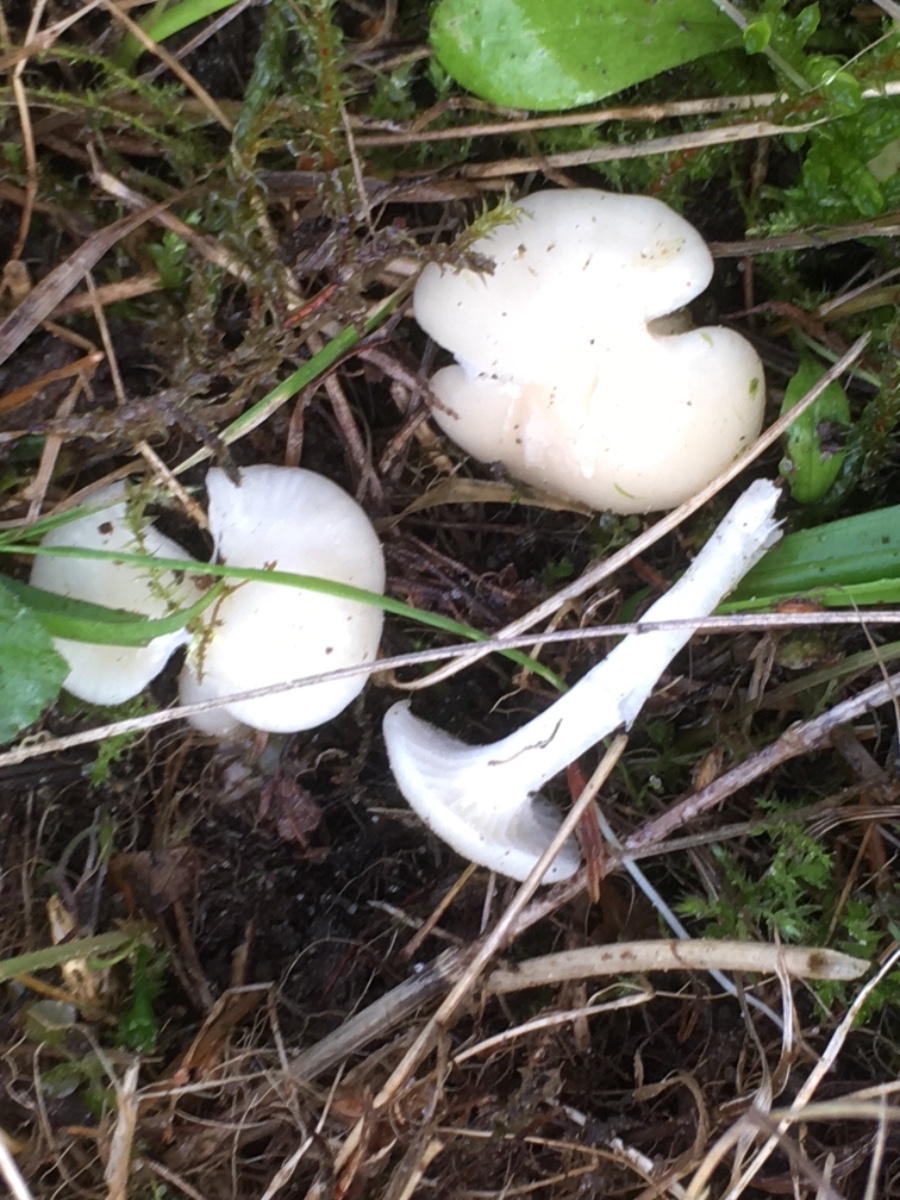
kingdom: Fungi
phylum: Basidiomycota
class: Agaricomycetes
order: Agaricales
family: Hygrophoraceae
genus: Cuphophyllus
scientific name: Cuphophyllus virgineus
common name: snehvid vokshat
